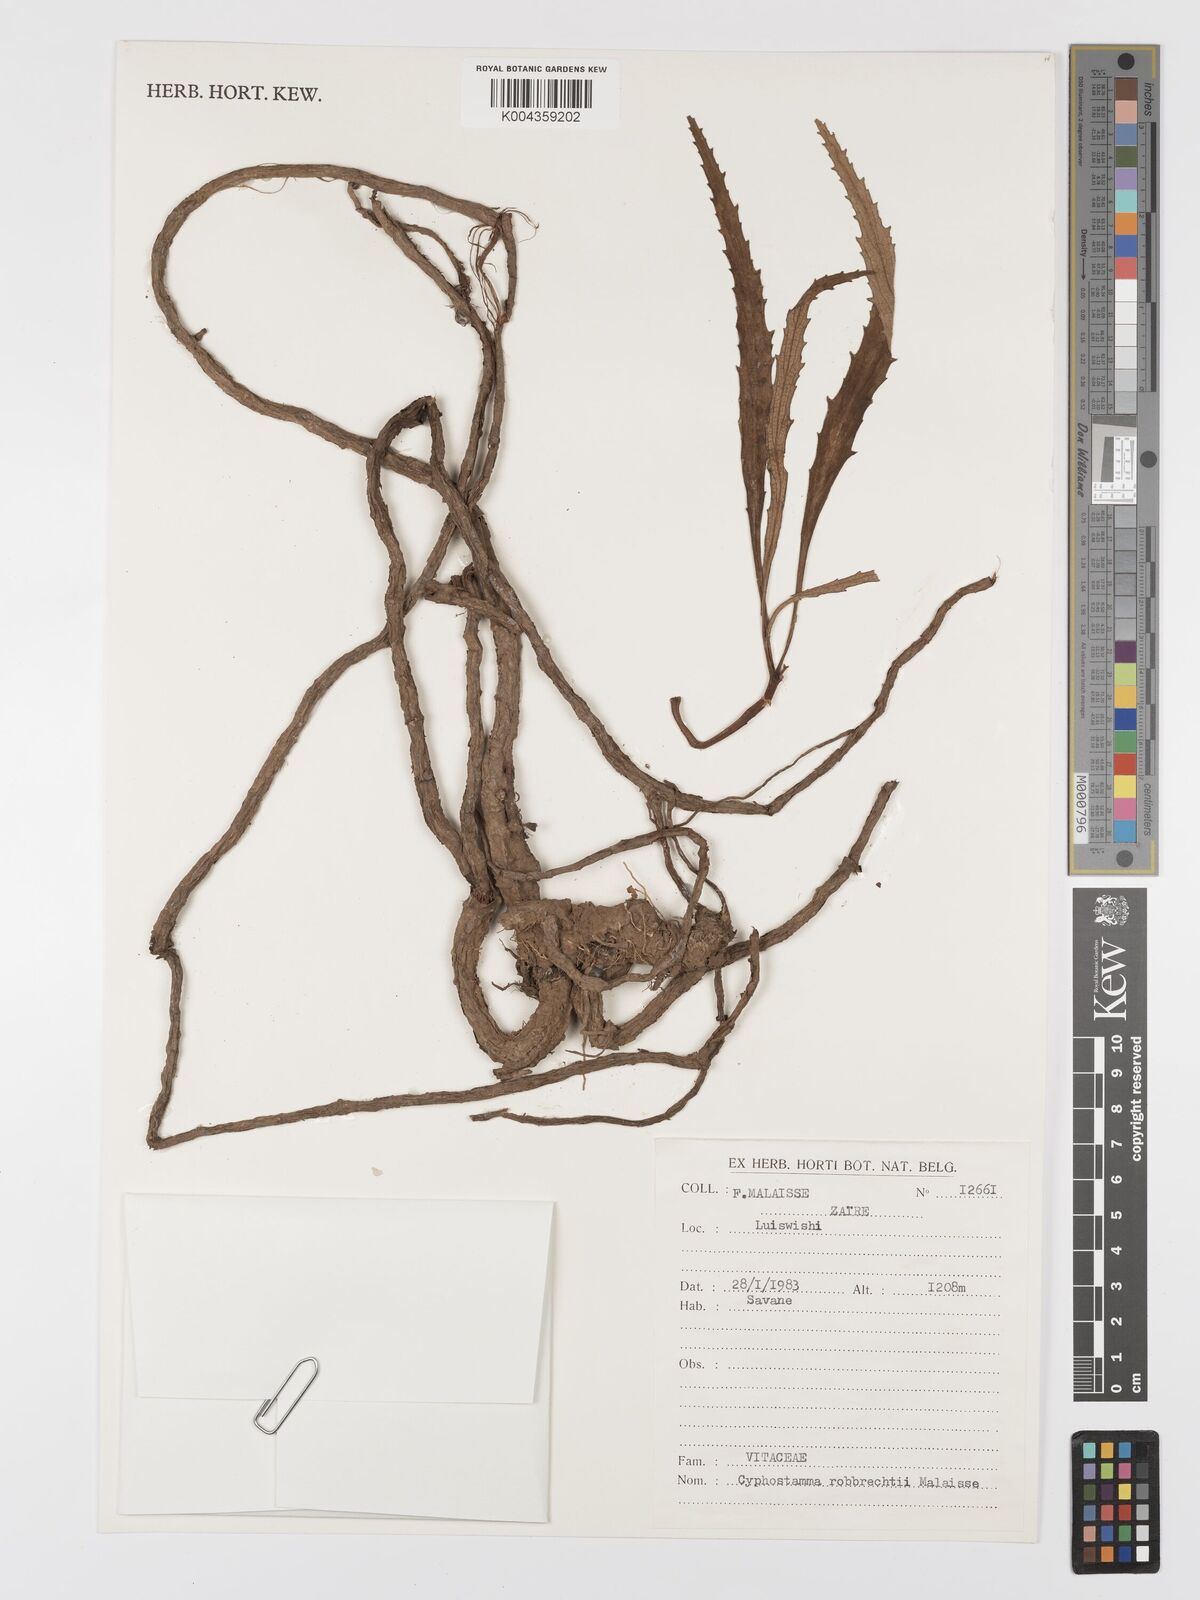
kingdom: Plantae
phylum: Tracheophyta
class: Magnoliopsida
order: Vitales
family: Vitaceae
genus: Cyphostemma
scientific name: Cyphostemma
